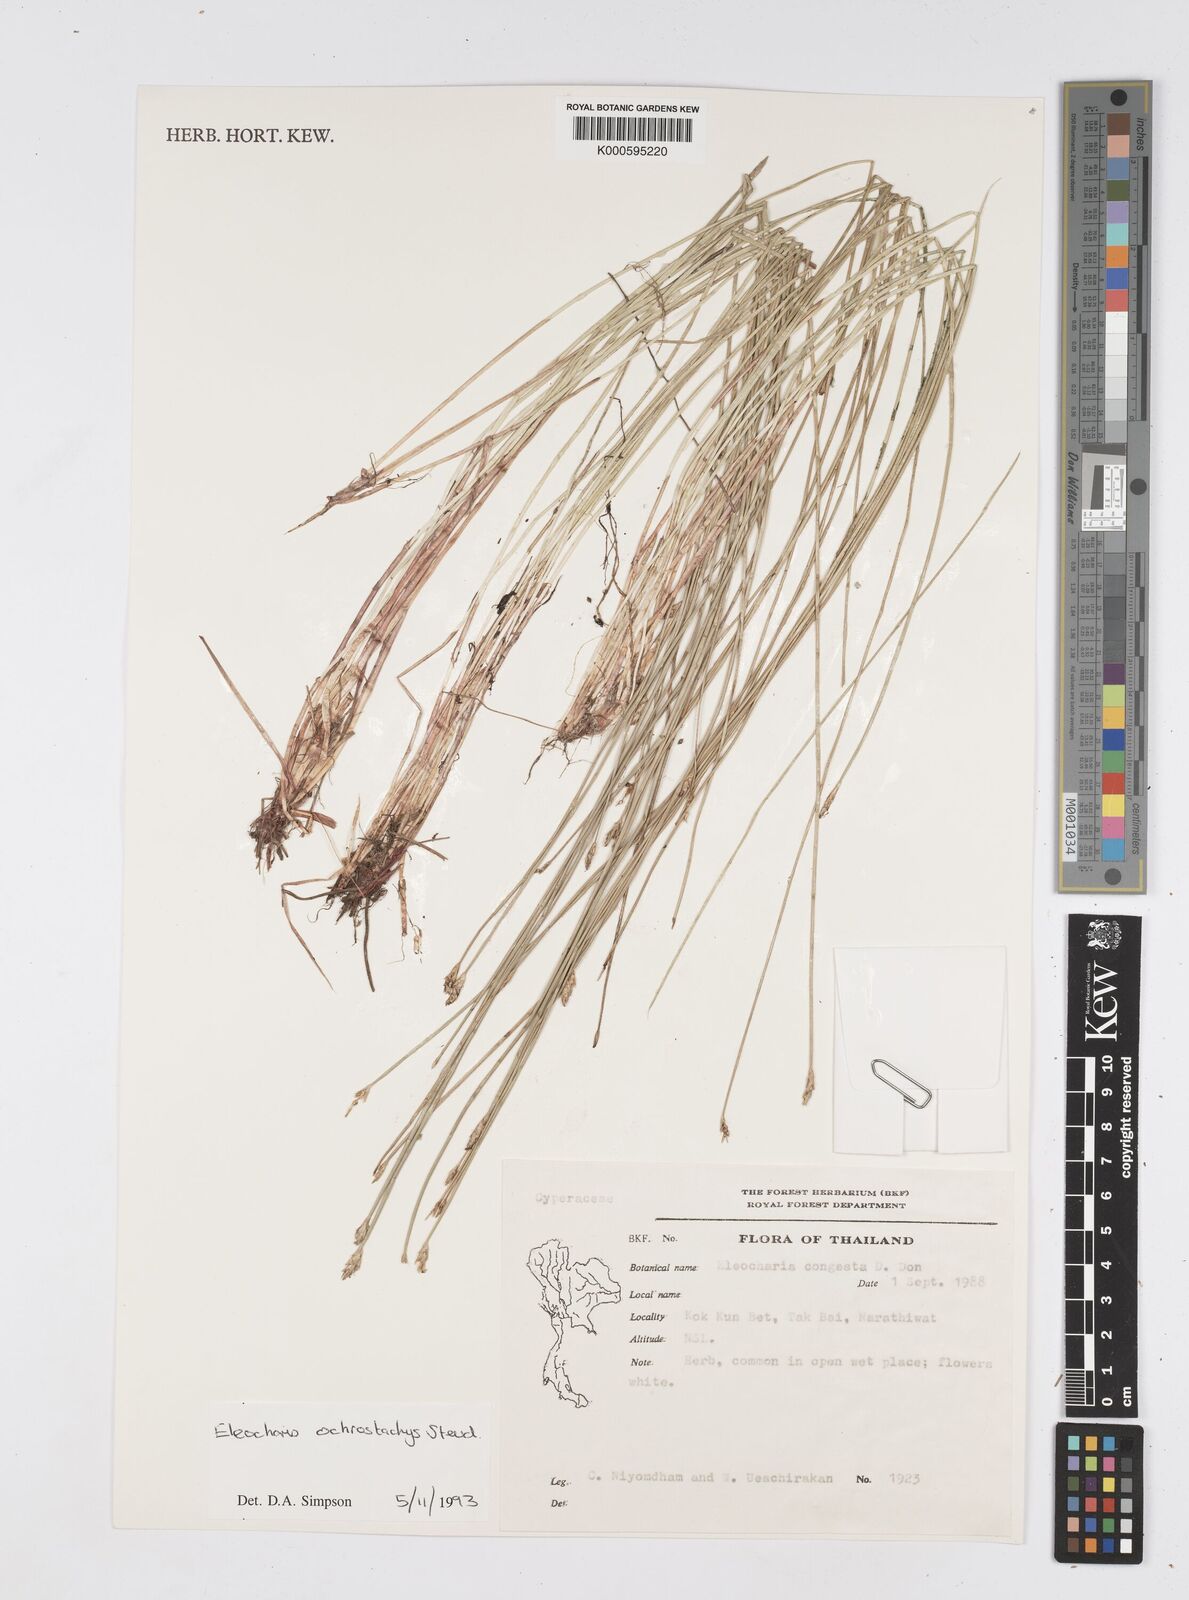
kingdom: Plantae
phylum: Tracheophyta
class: Liliopsida
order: Poales
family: Cyperaceae
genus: Eleocharis
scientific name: Eleocharis ochrostachys
